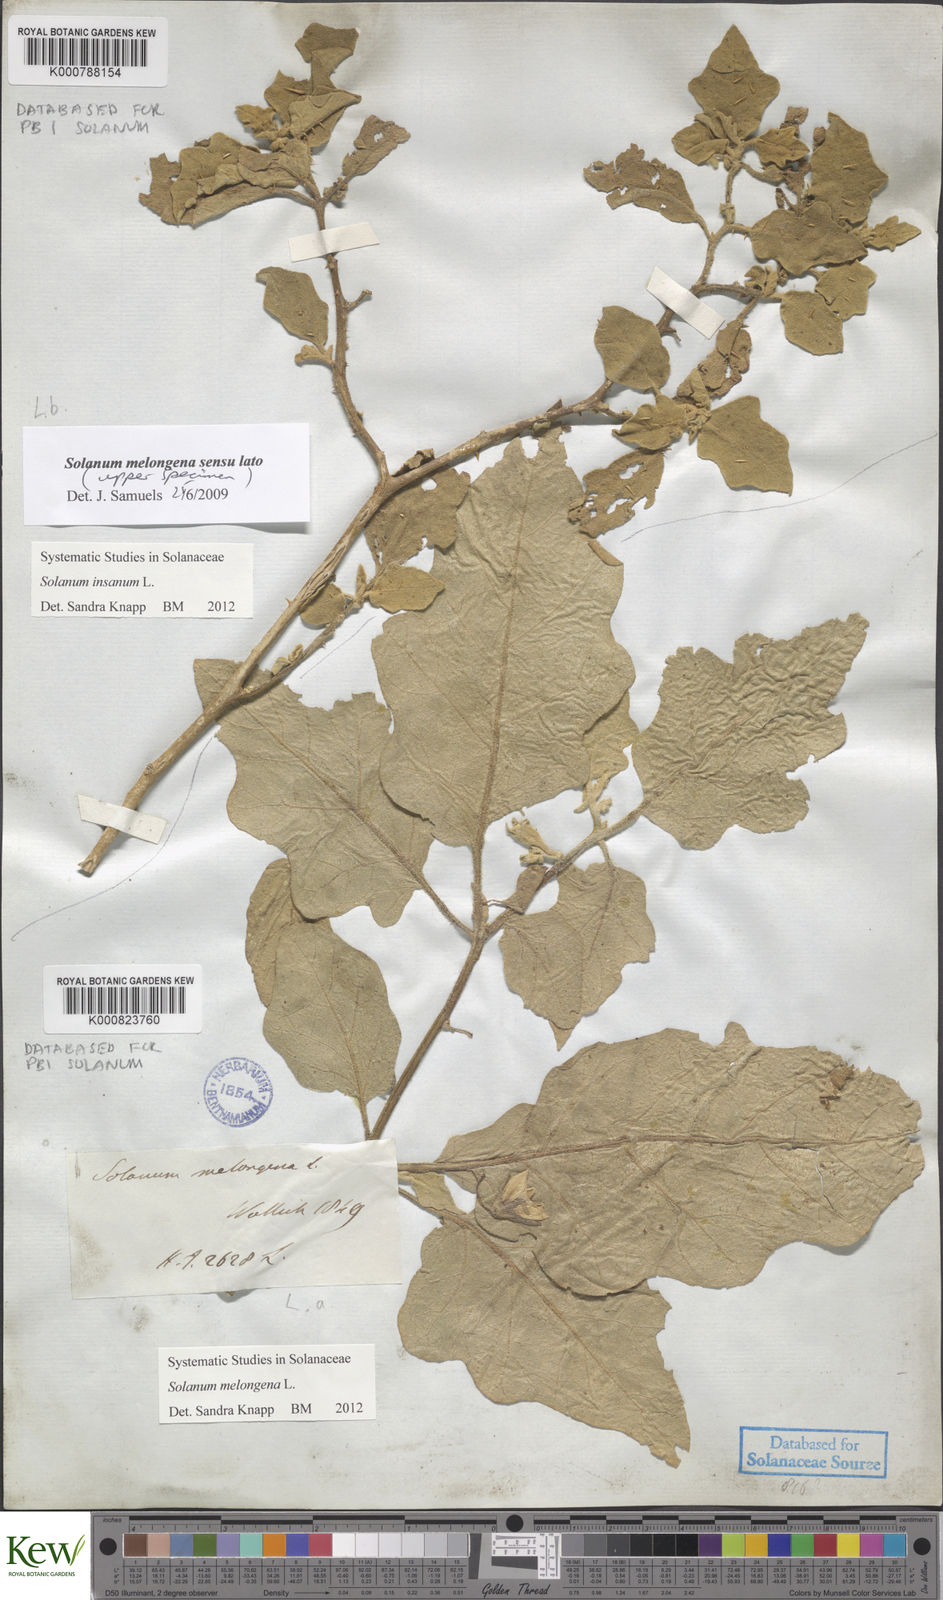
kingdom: Plantae
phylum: Tracheophyta
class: Magnoliopsida
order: Solanales
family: Solanaceae
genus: Solanum
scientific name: Solanum melongena
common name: Eggplant
